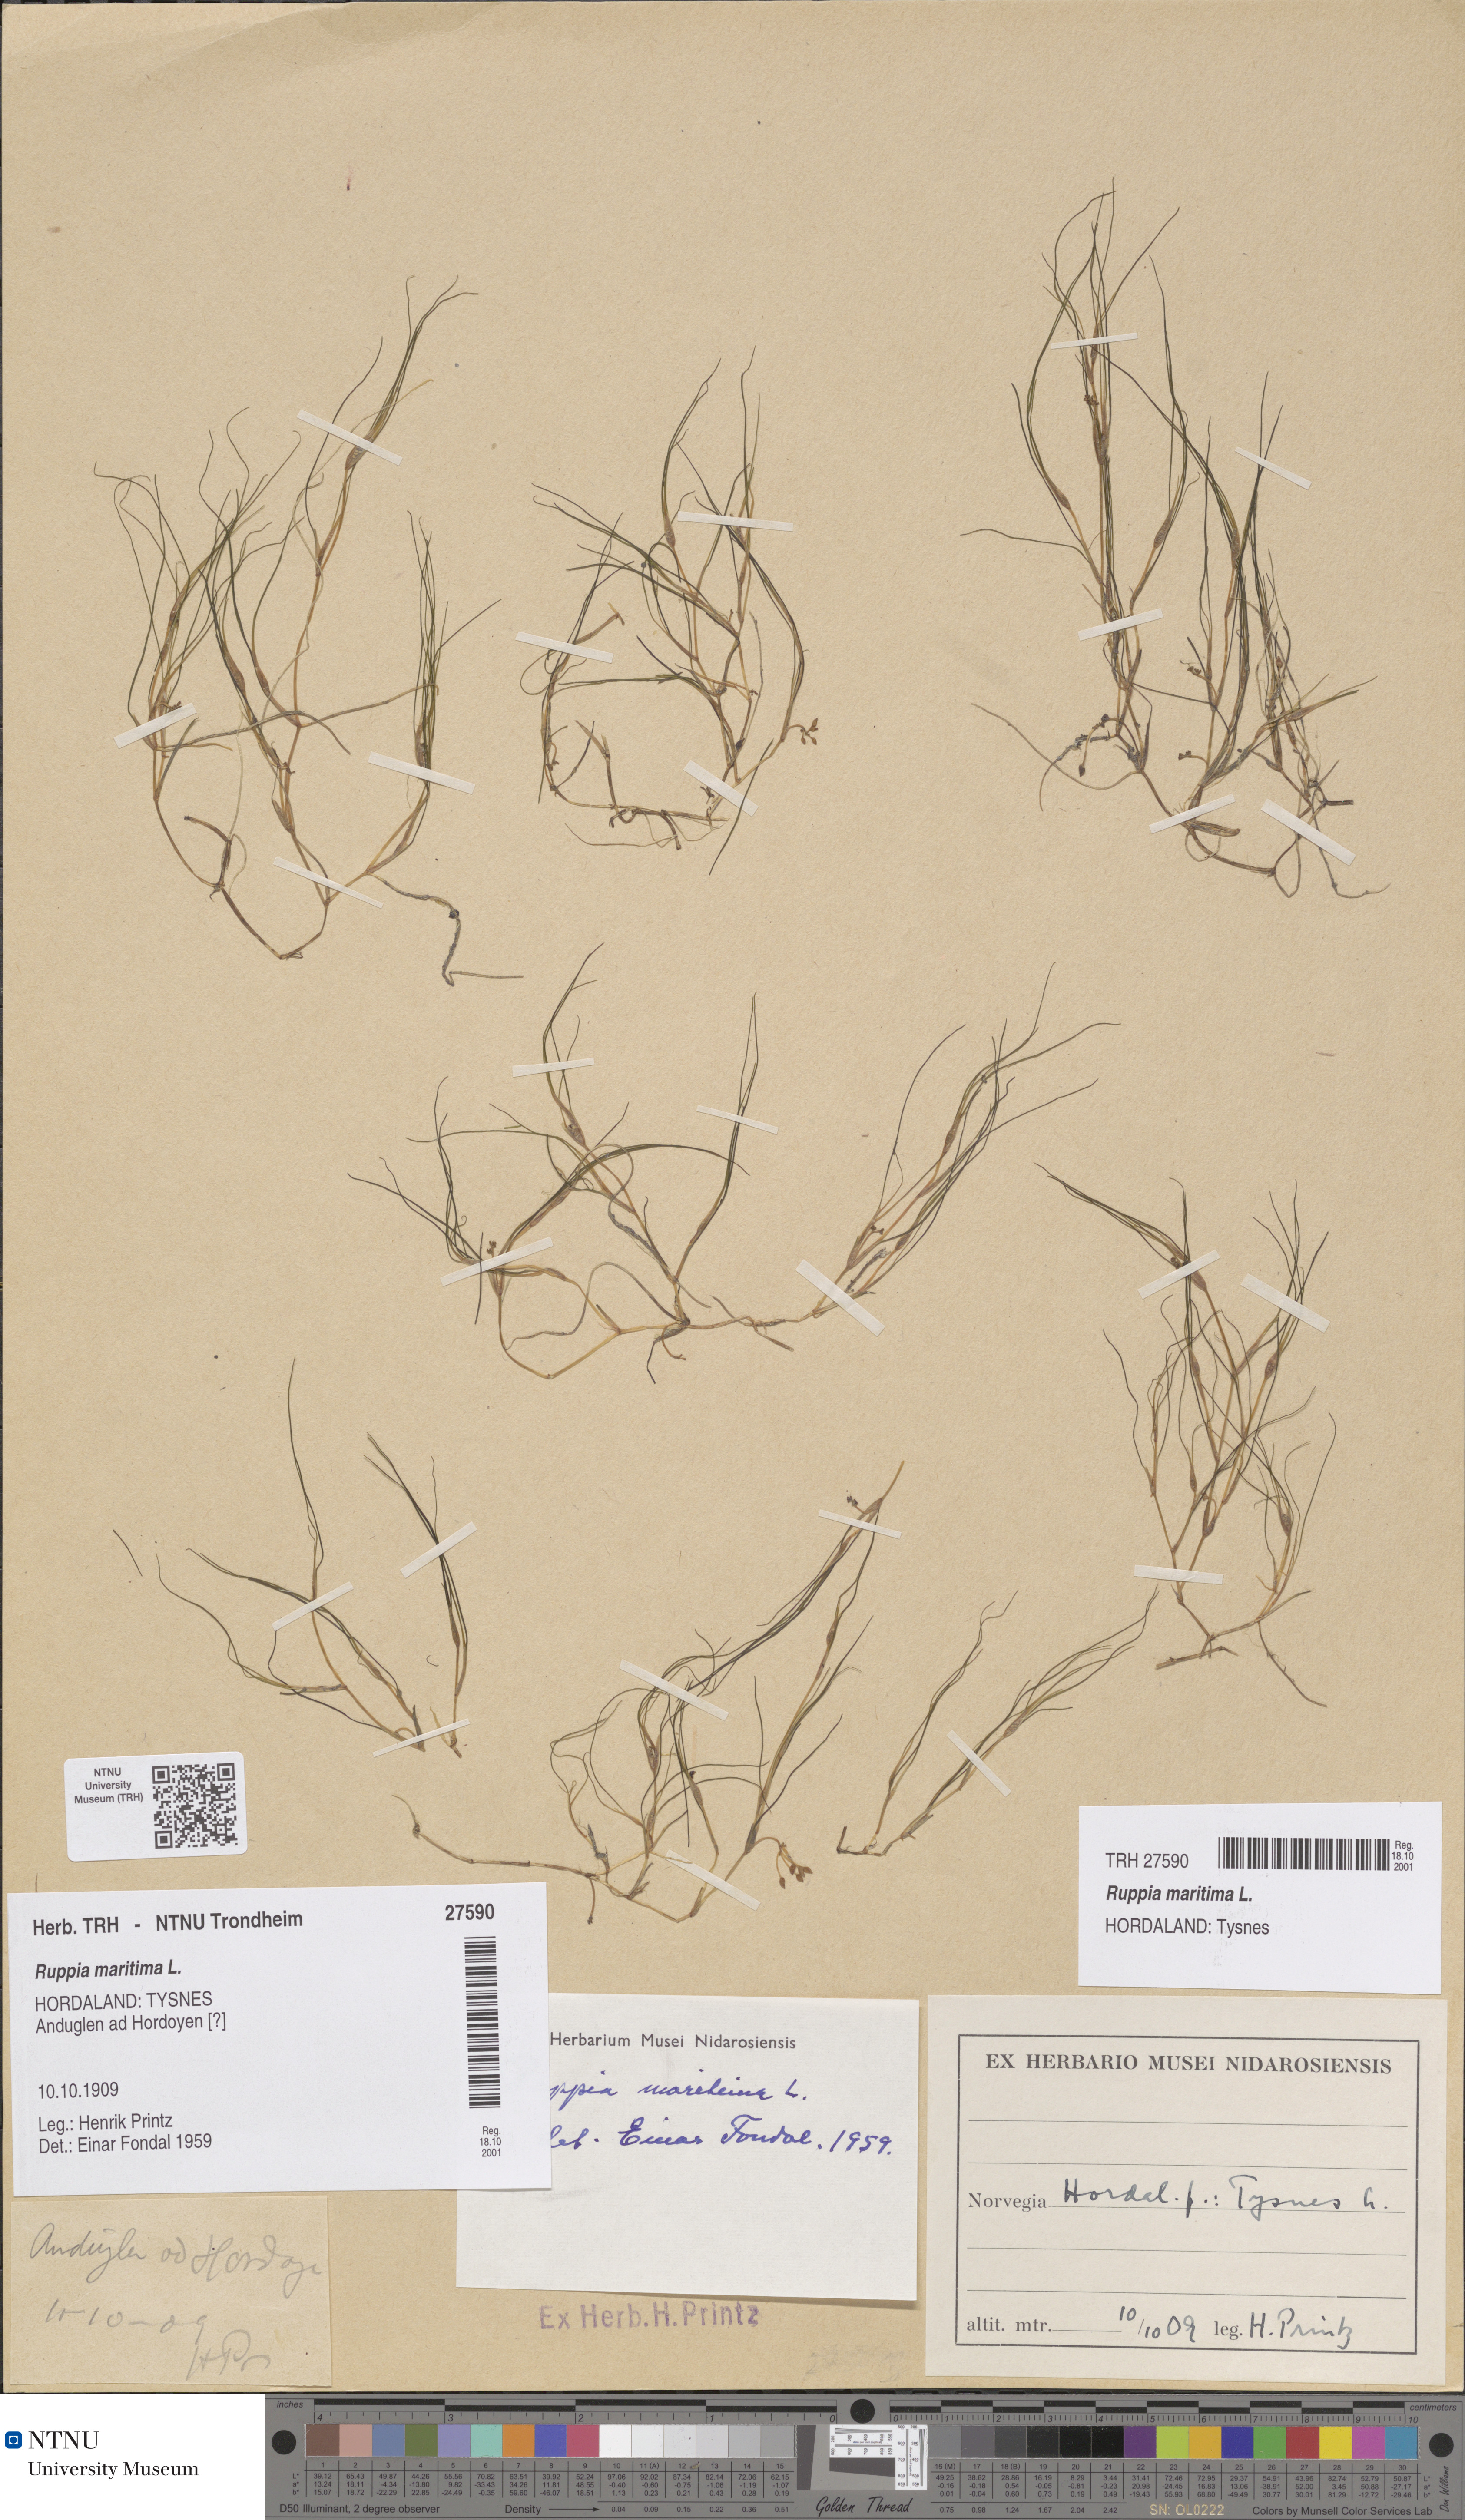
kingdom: Plantae
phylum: Tracheophyta
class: Liliopsida
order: Alismatales
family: Ruppiaceae
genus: Ruppia
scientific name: Ruppia maritima
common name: Beaked tasselweed
